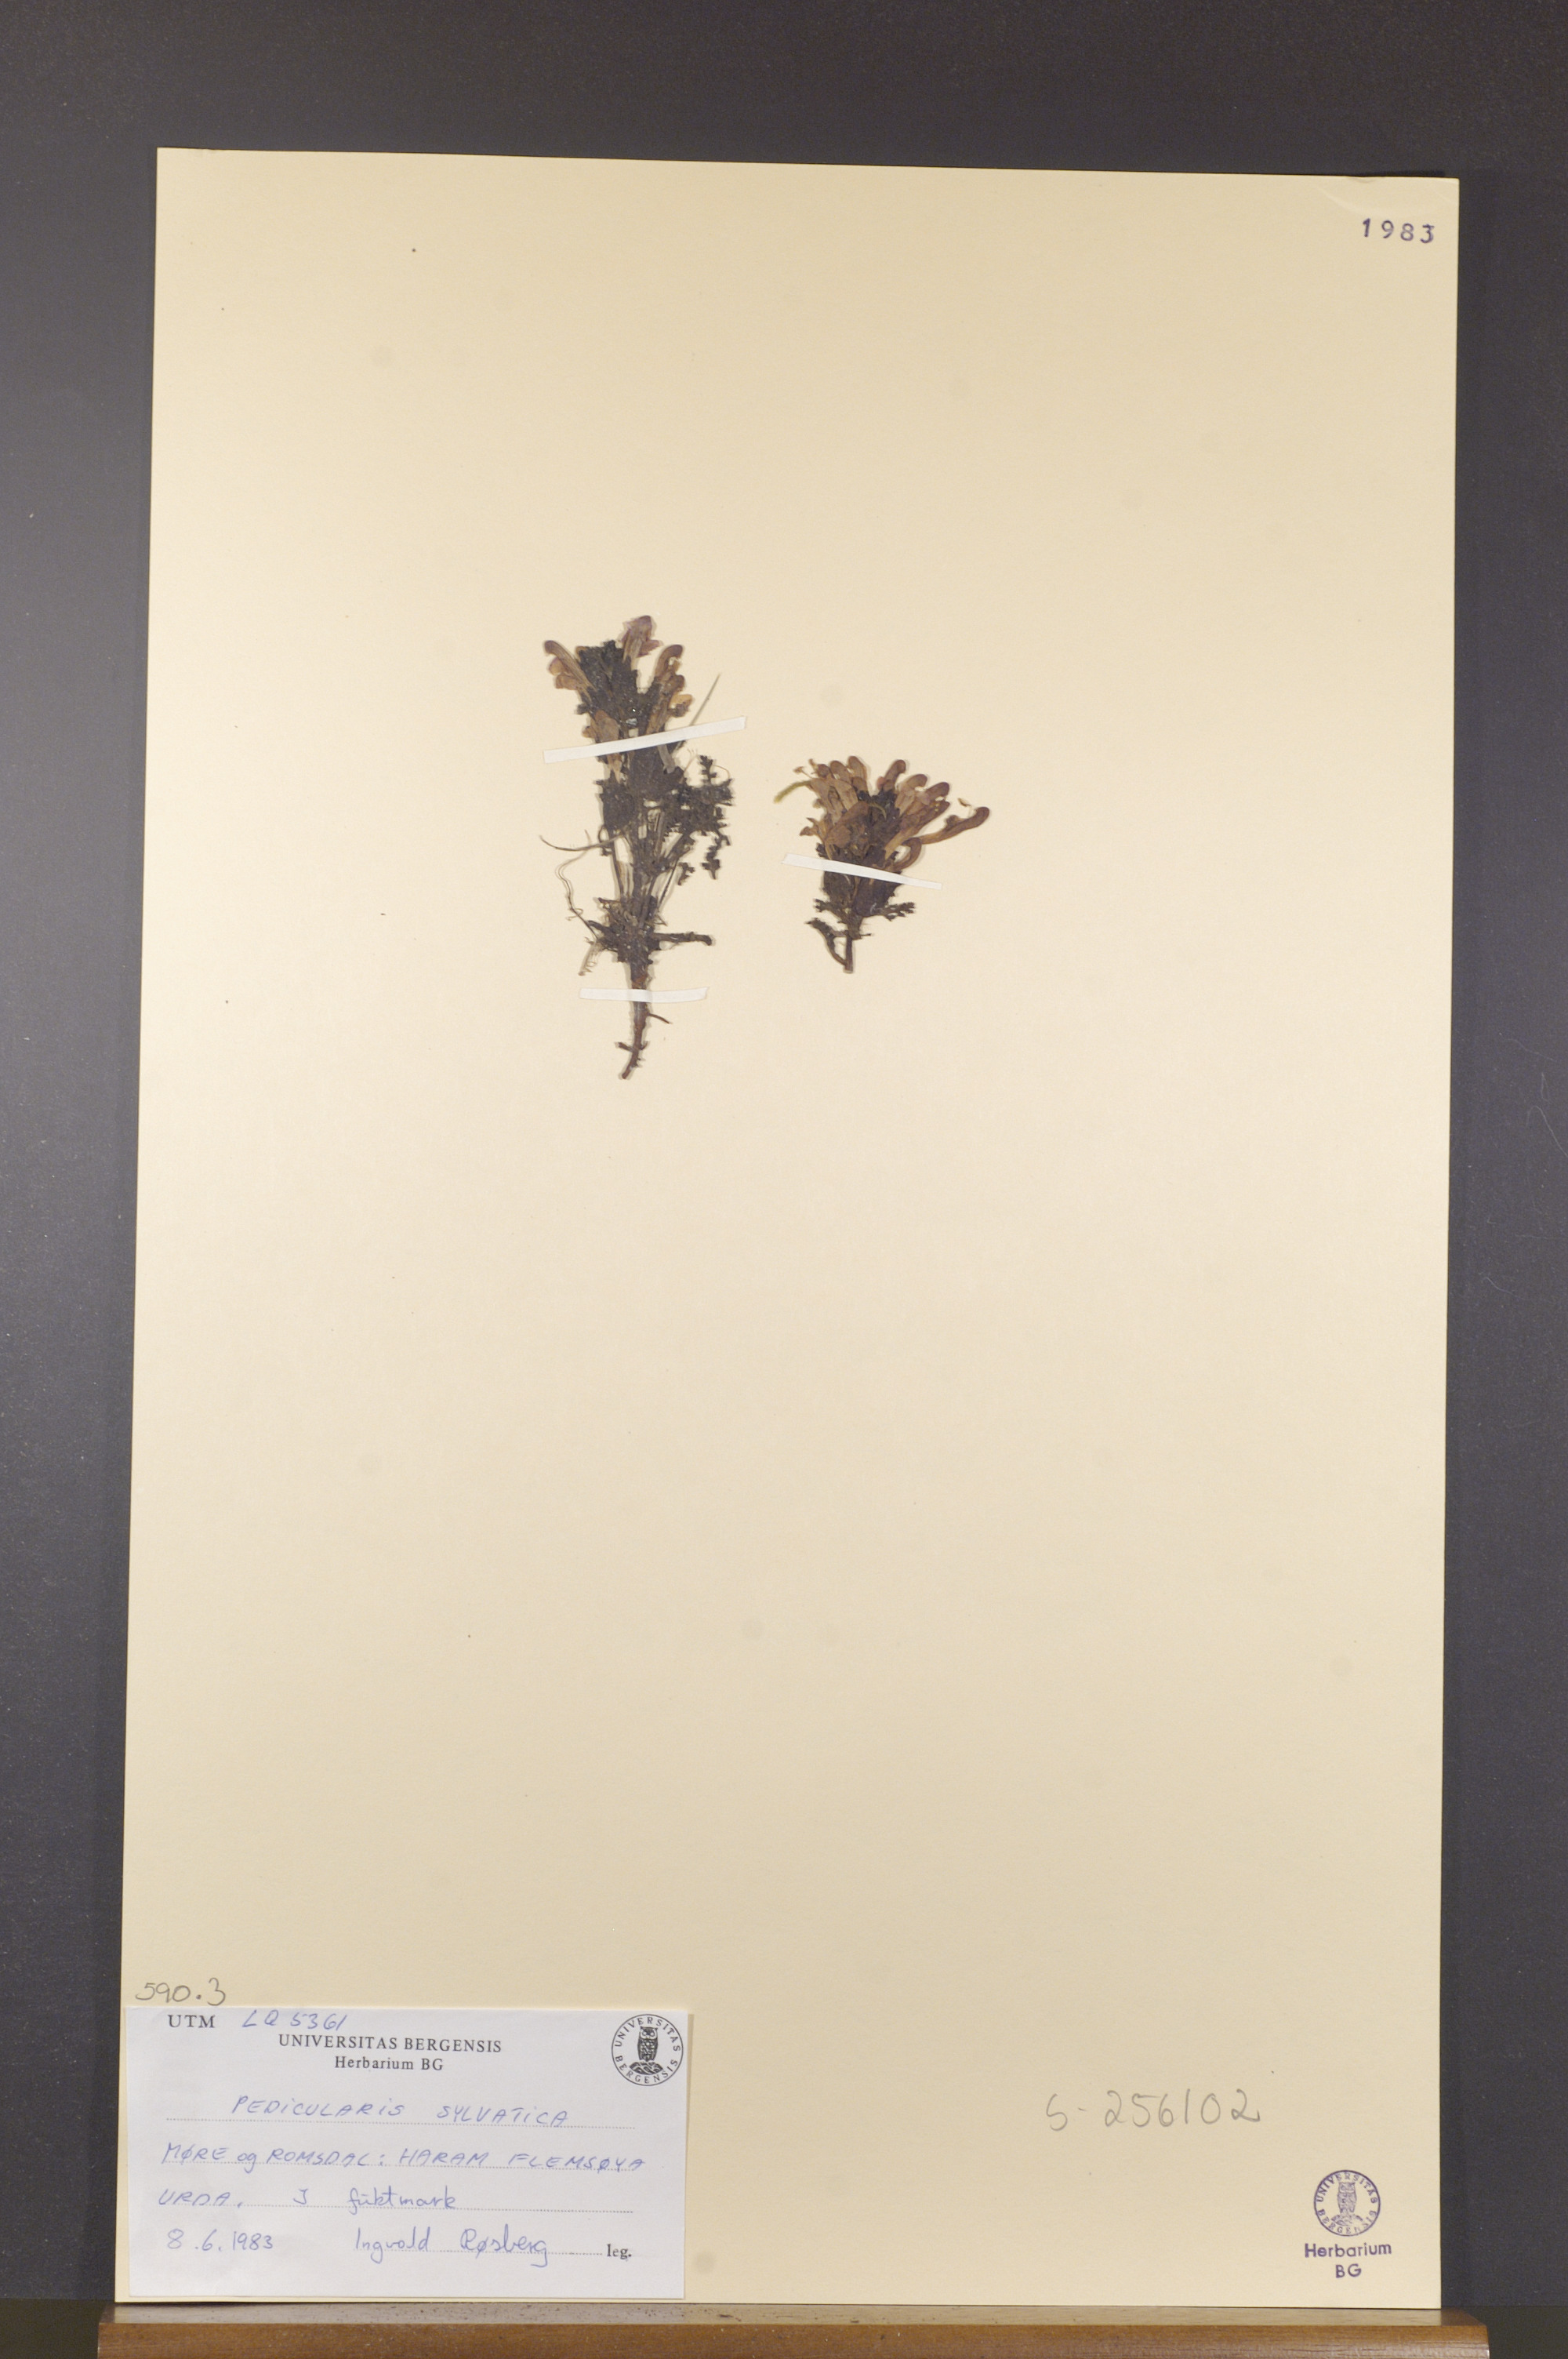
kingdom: Plantae
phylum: Tracheophyta
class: Magnoliopsida
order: Lamiales
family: Orobanchaceae
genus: Pedicularis
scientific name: Pedicularis sylvatica
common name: Lousewort
